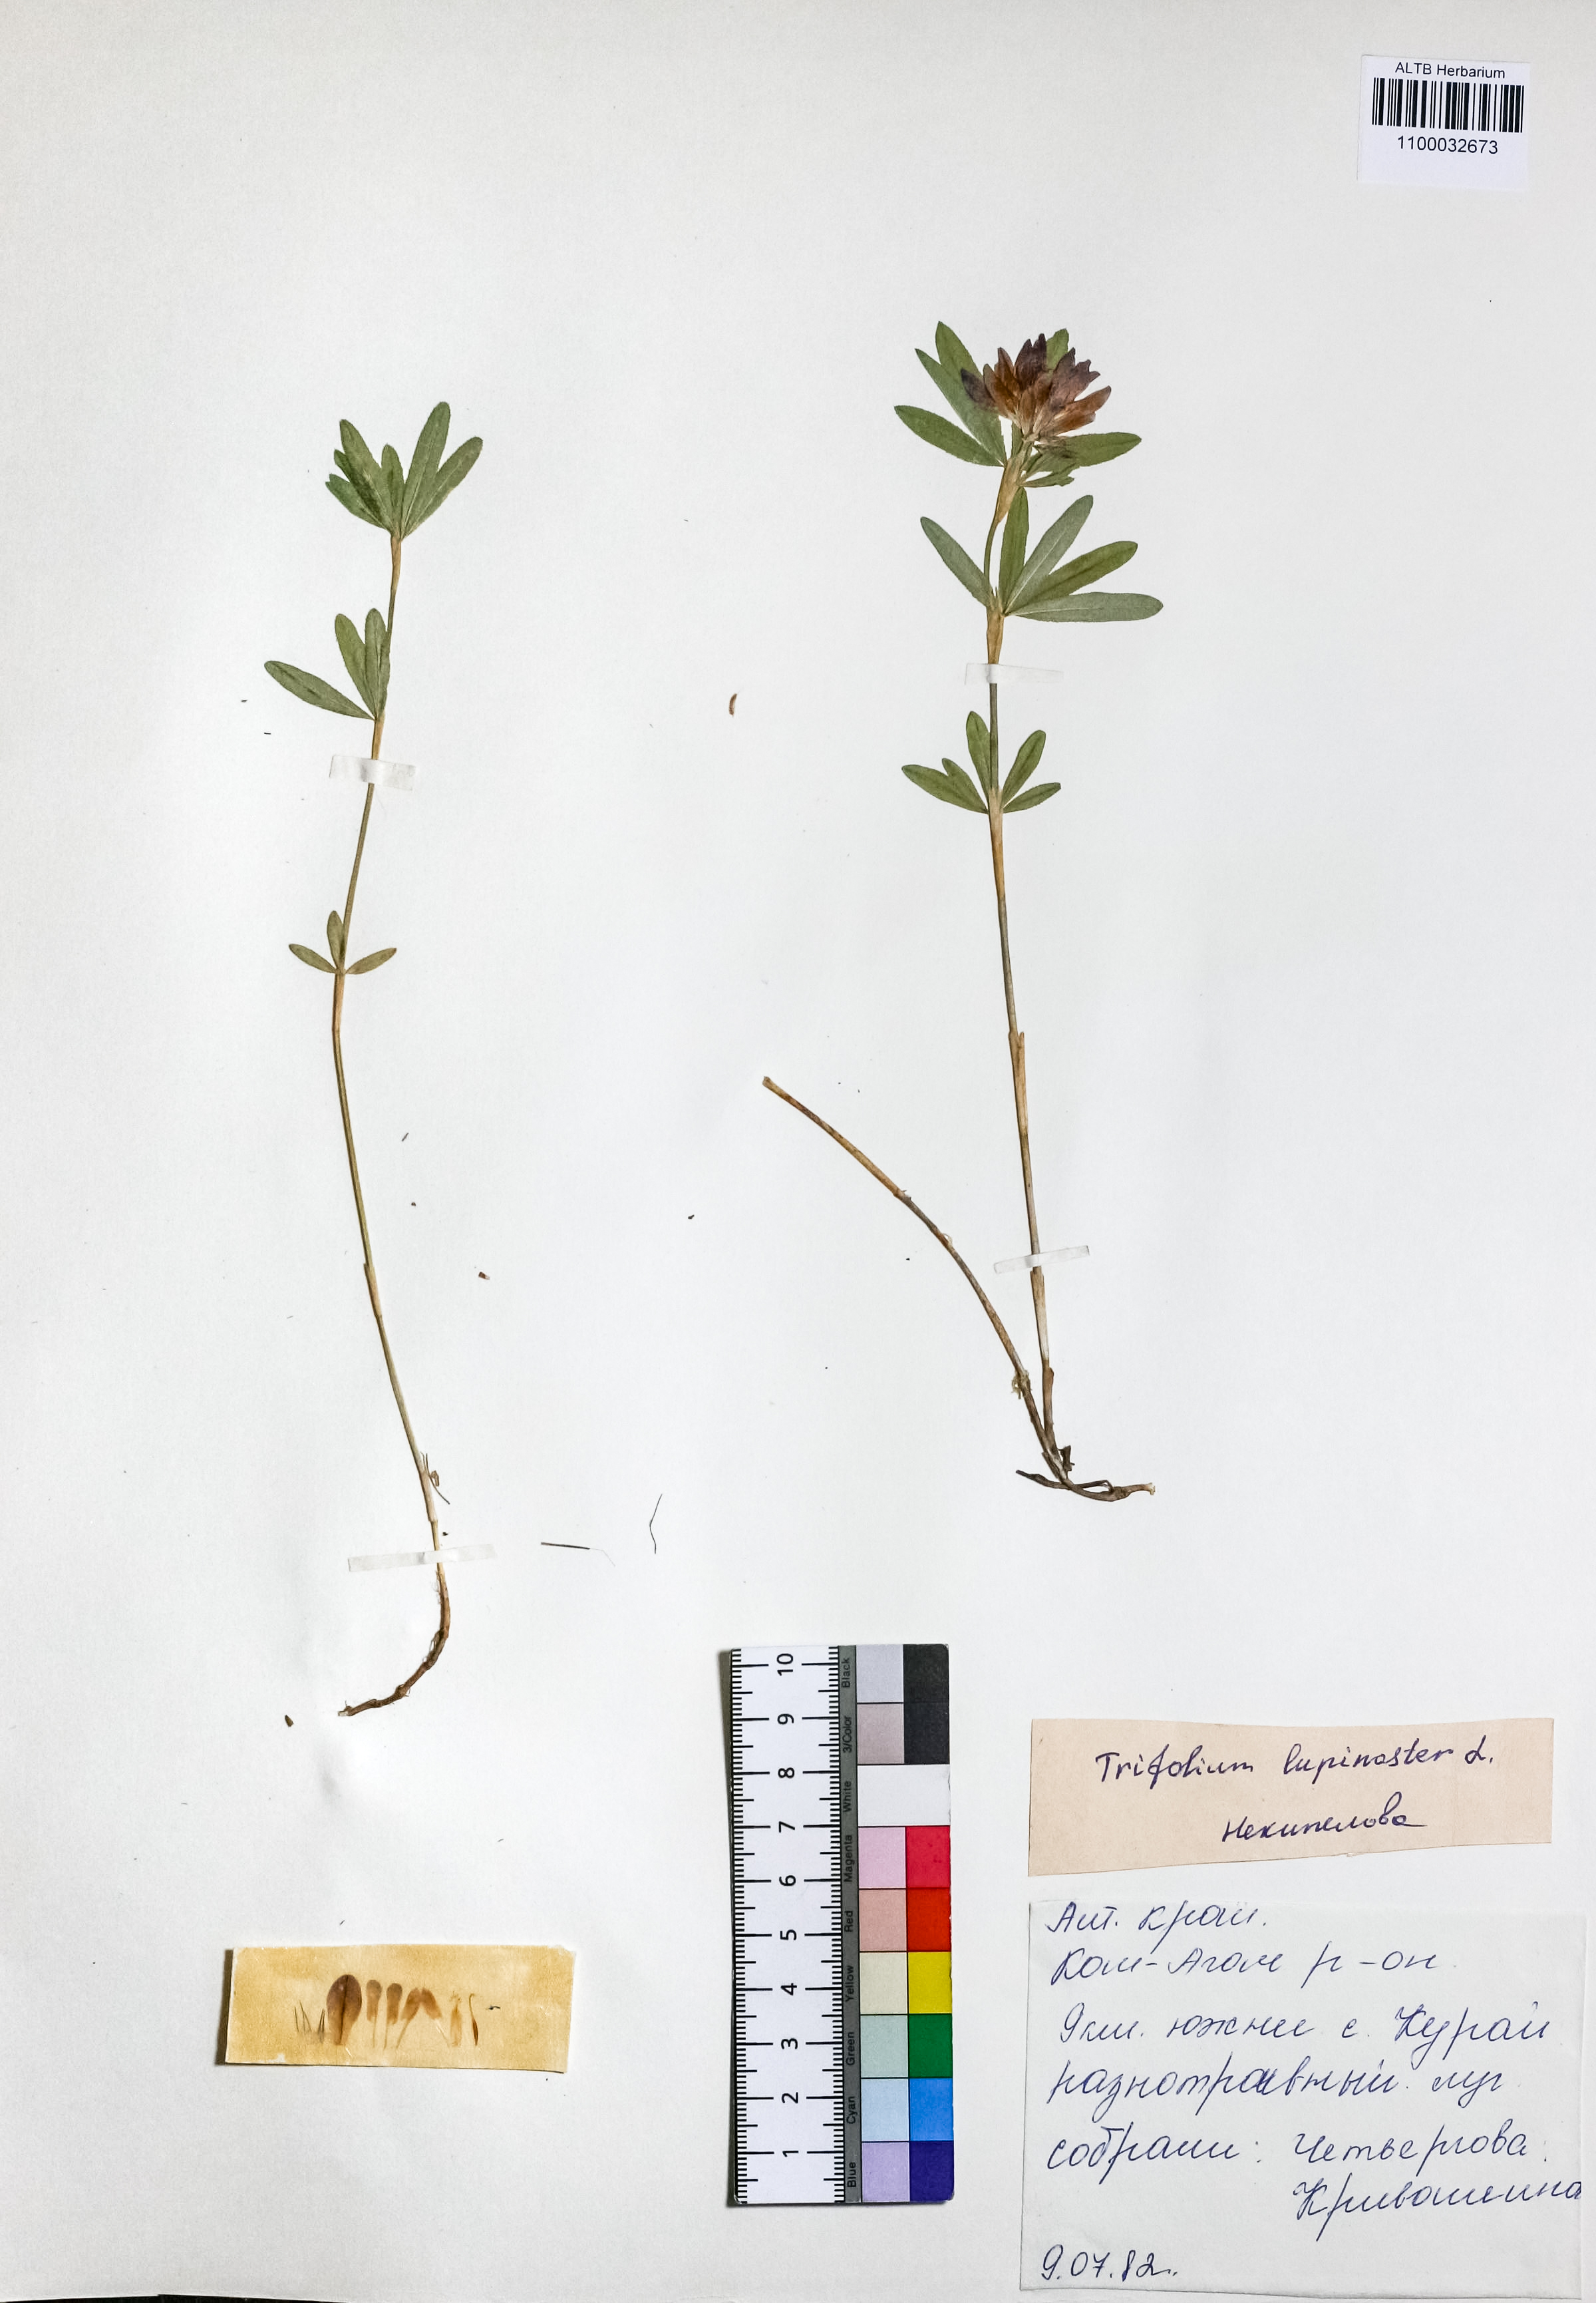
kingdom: Plantae
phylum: Tracheophyta
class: Magnoliopsida
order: Fabales
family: Fabaceae
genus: Trifolium
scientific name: Trifolium lupinaster
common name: Lupine clover
